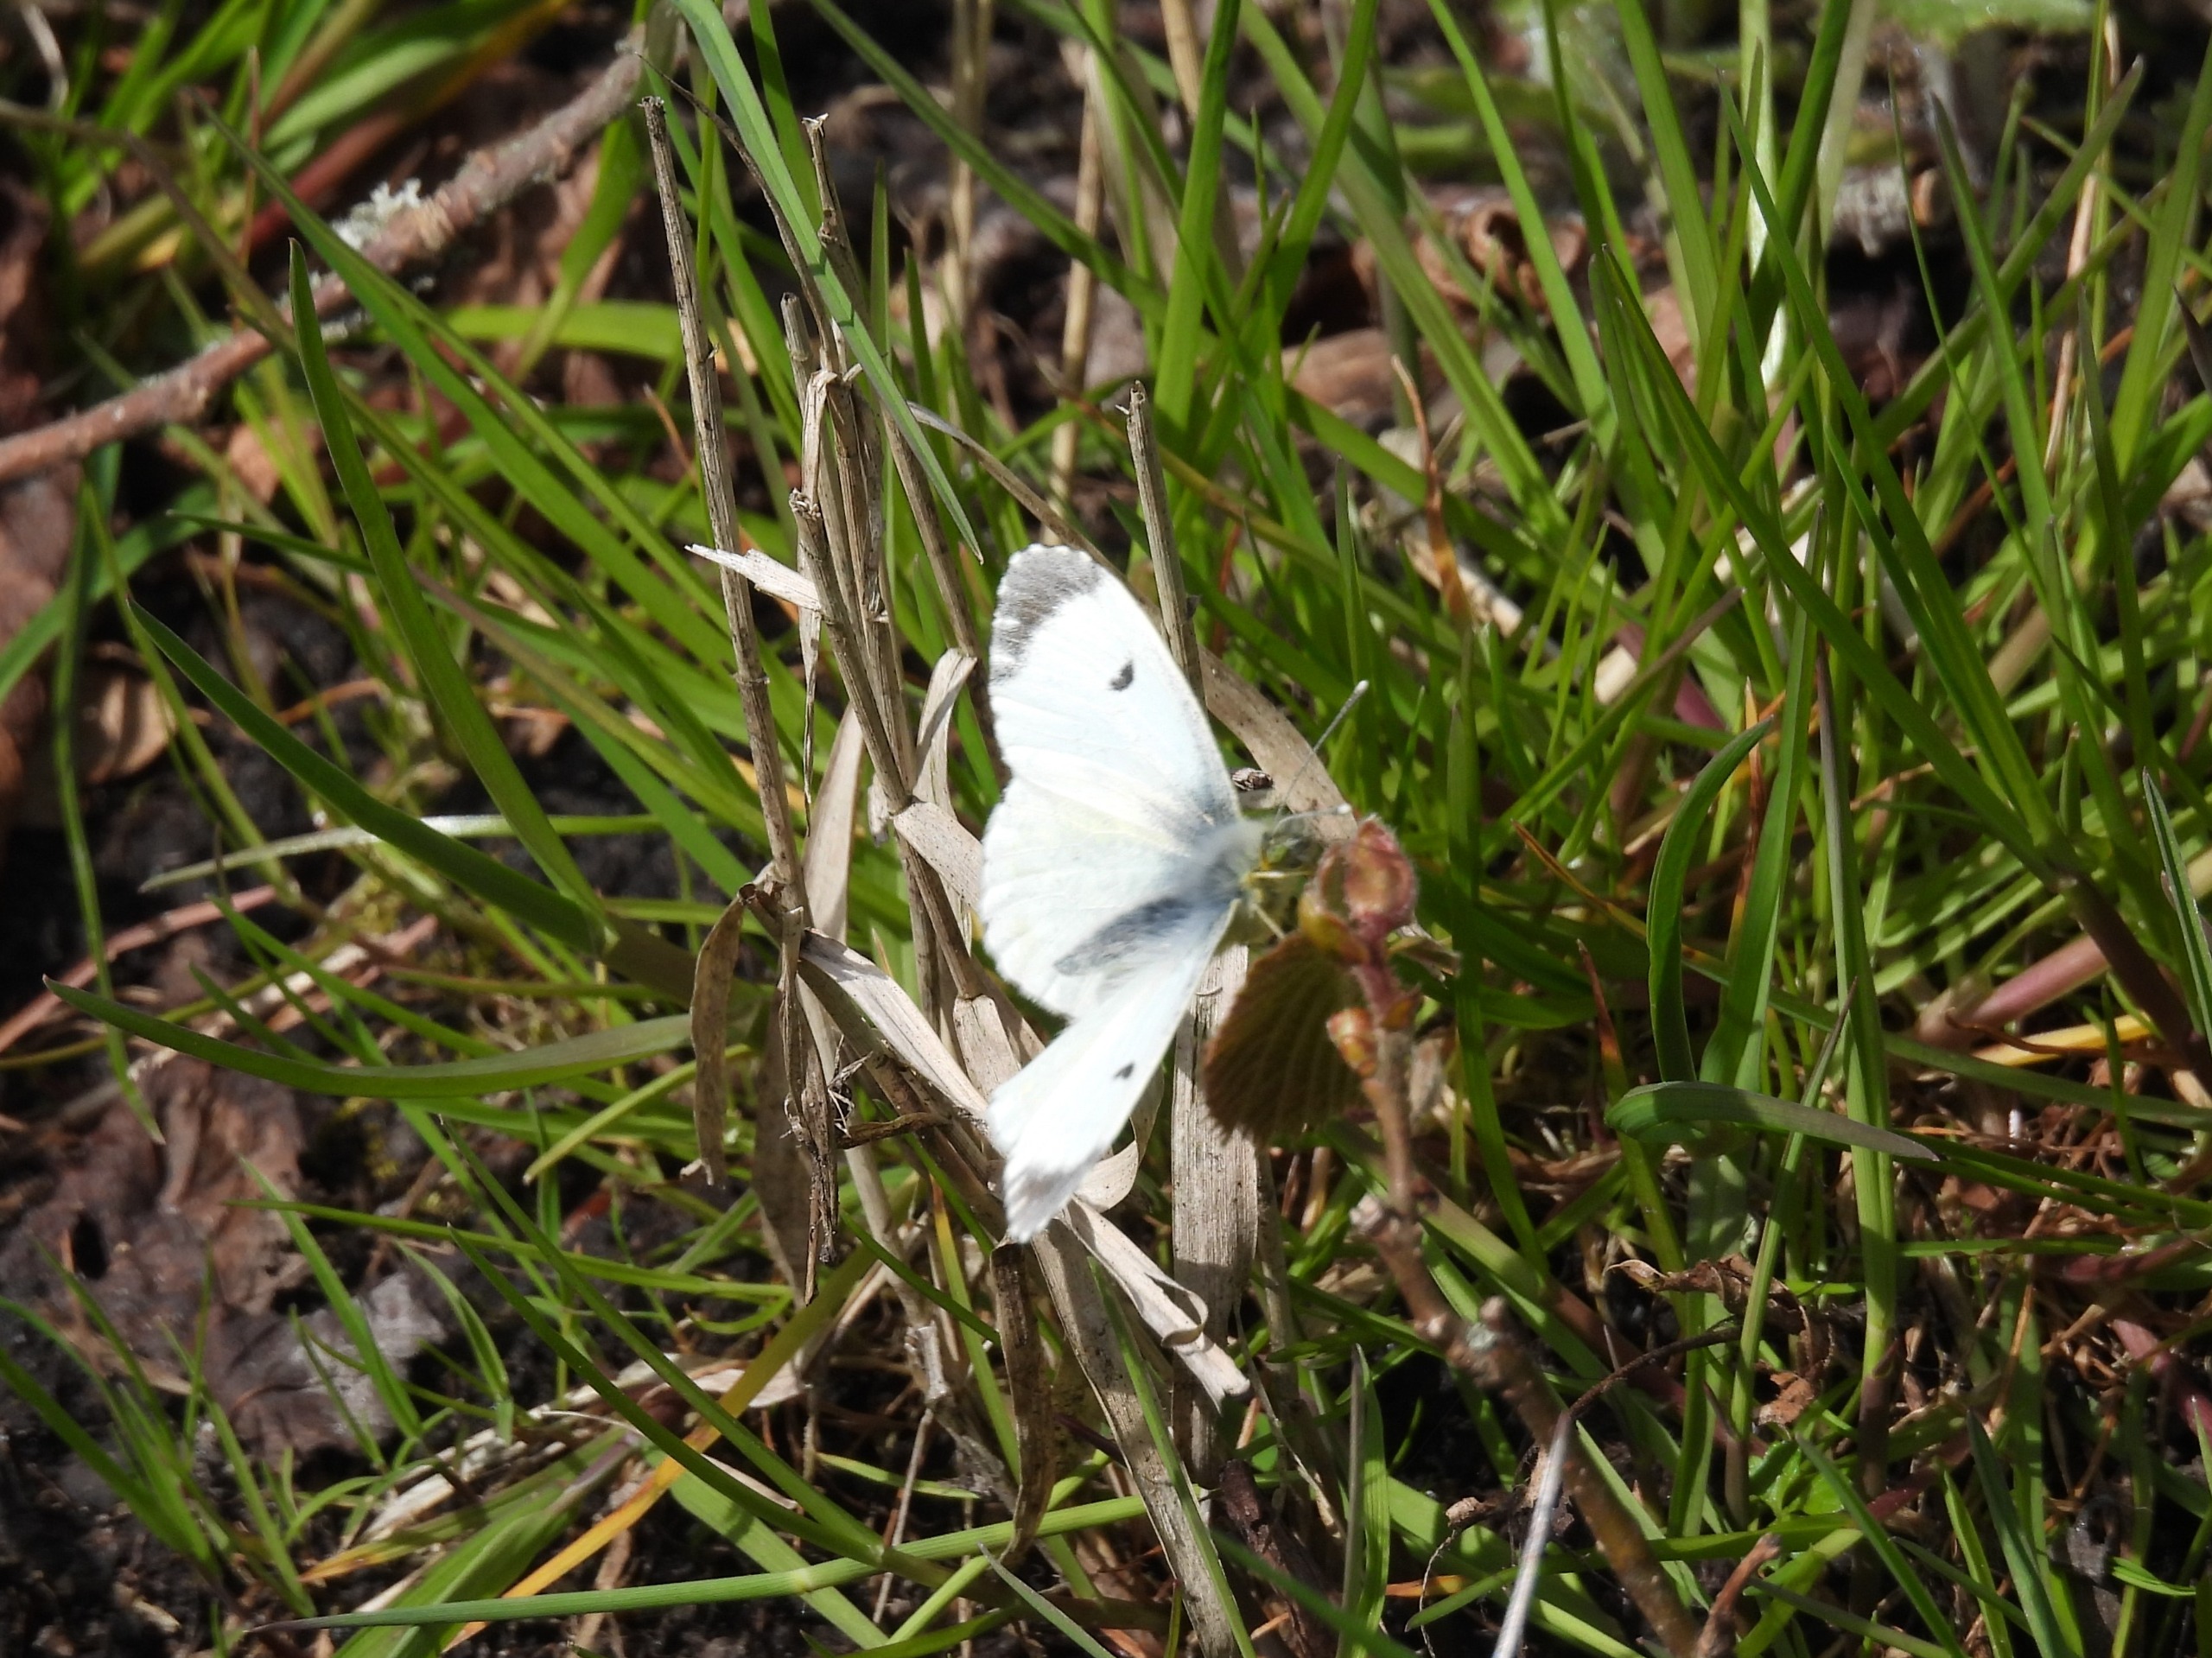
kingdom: Animalia
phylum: Arthropoda
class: Insecta
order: Lepidoptera
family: Pieridae
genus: Anthocharis
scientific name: Anthocharis cardamines
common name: Aurora
